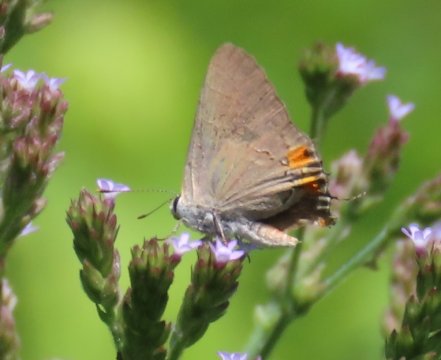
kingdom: Animalia
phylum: Arthropoda
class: Insecta
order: Lepidoptera
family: Lycaenidae
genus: Strymon
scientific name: Strymon melinus
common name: Gray Hairstreak
